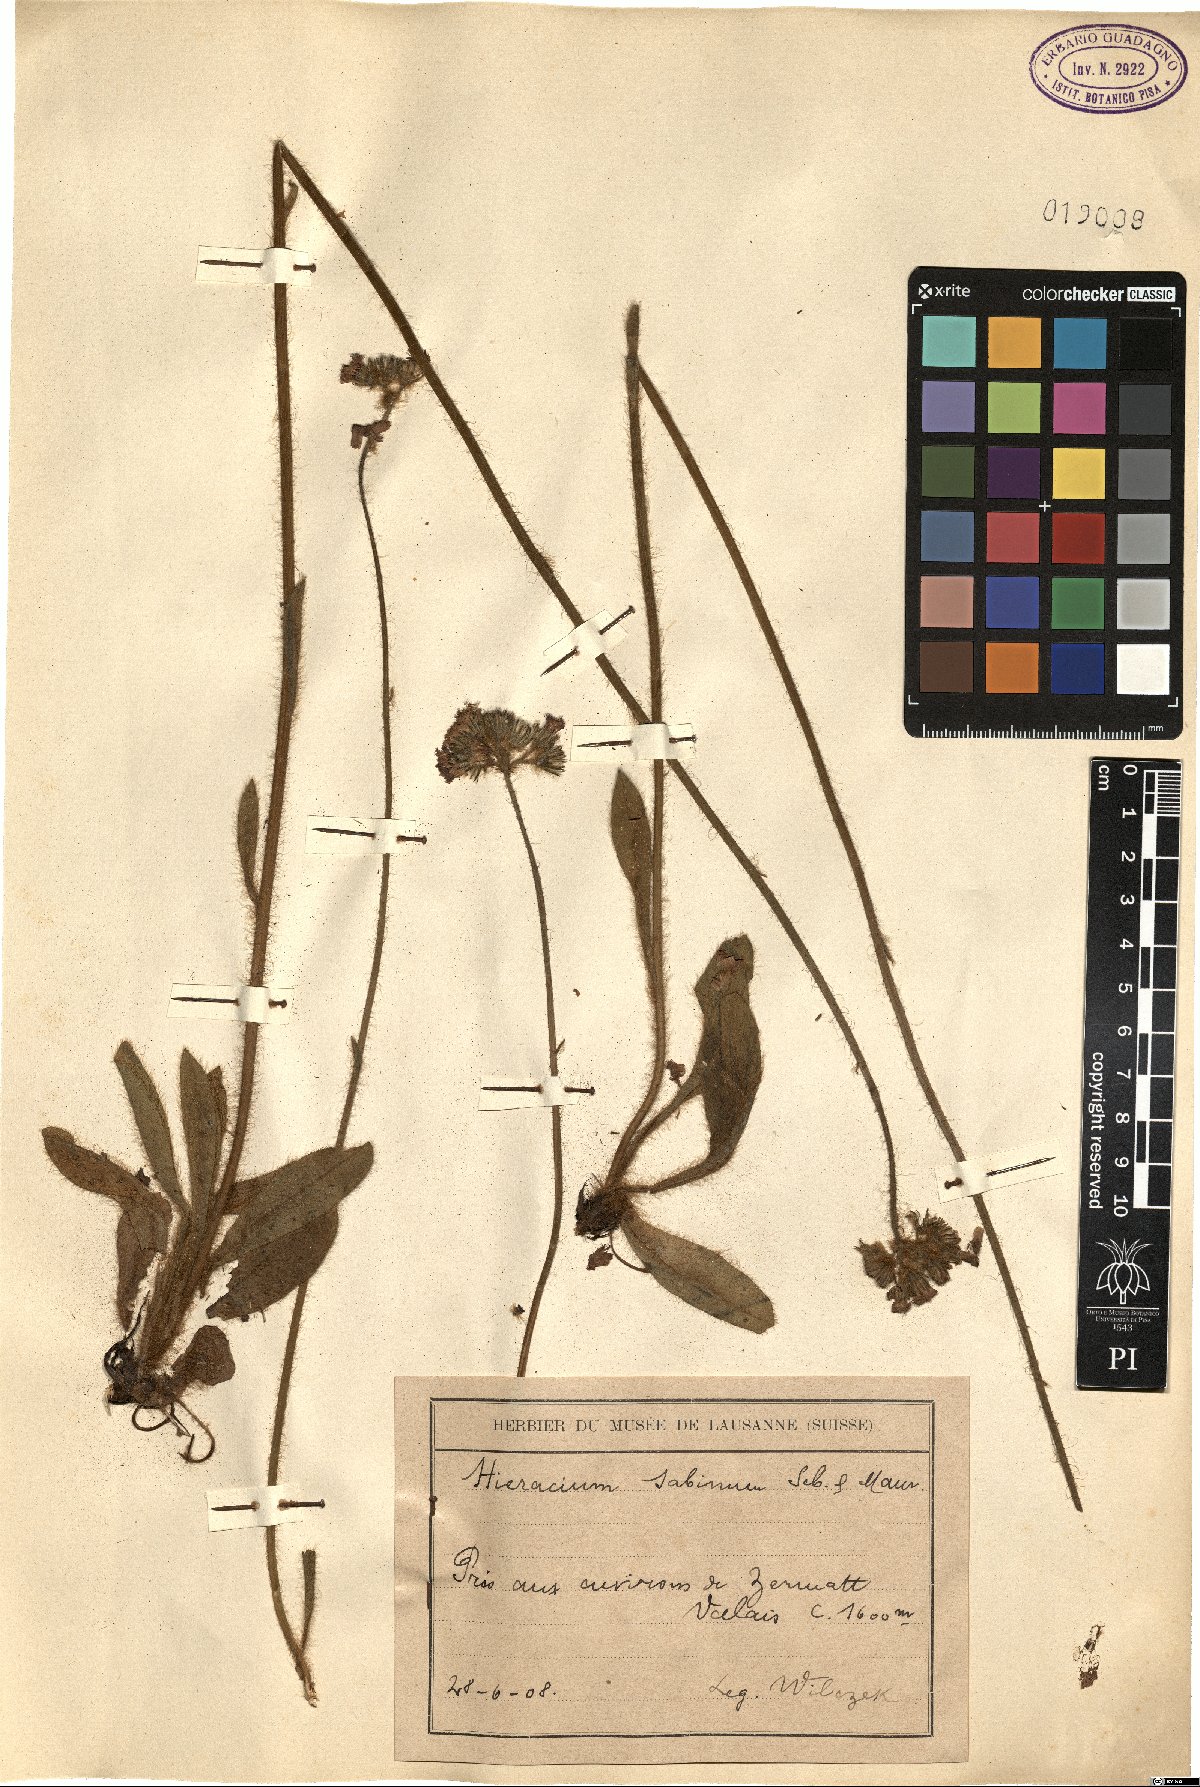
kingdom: Plantae
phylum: Tracheophyta
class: Magnoliopsida
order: Asterales
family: Asteraceae
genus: Pilosella
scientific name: Pilosella cymosa
